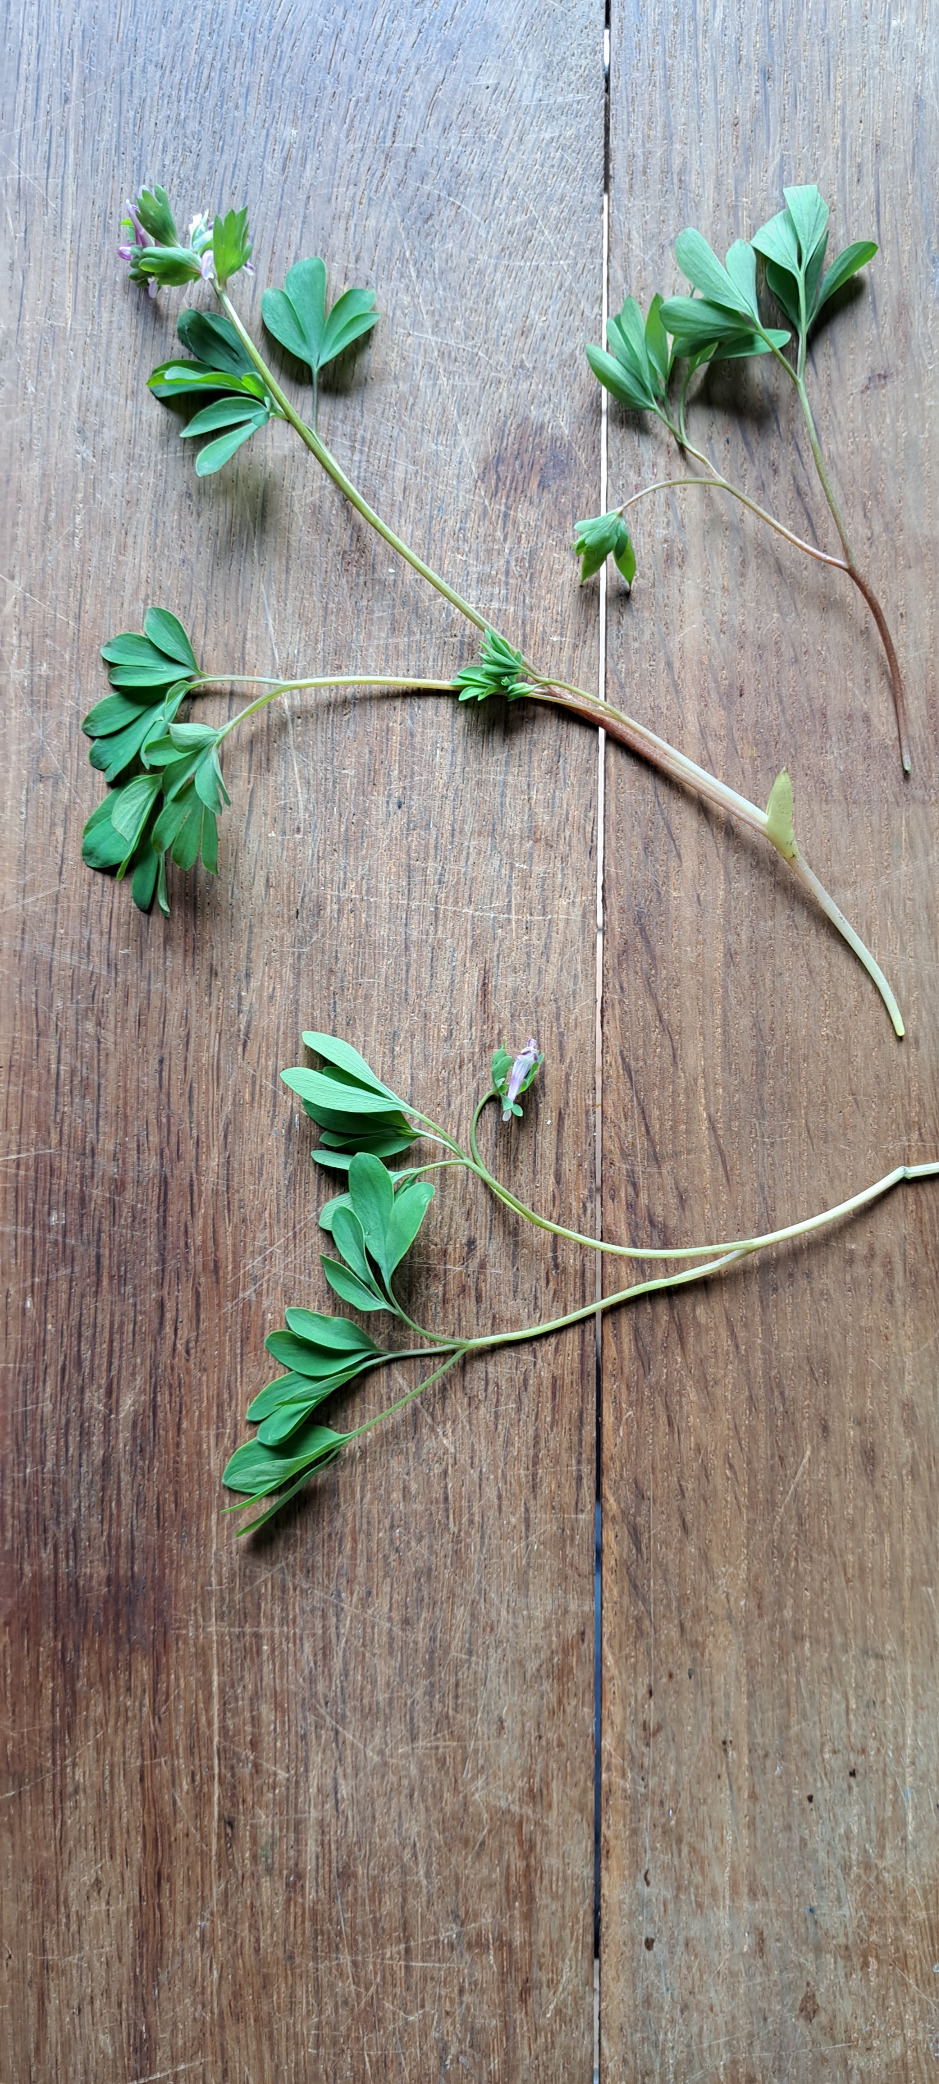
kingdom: Plantae
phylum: Tracheophyta
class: Magnoliopsida
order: Ranunculales
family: Papaveraceae
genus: Corydalis
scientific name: Corydalis pumila
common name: Finger-lærkespore
